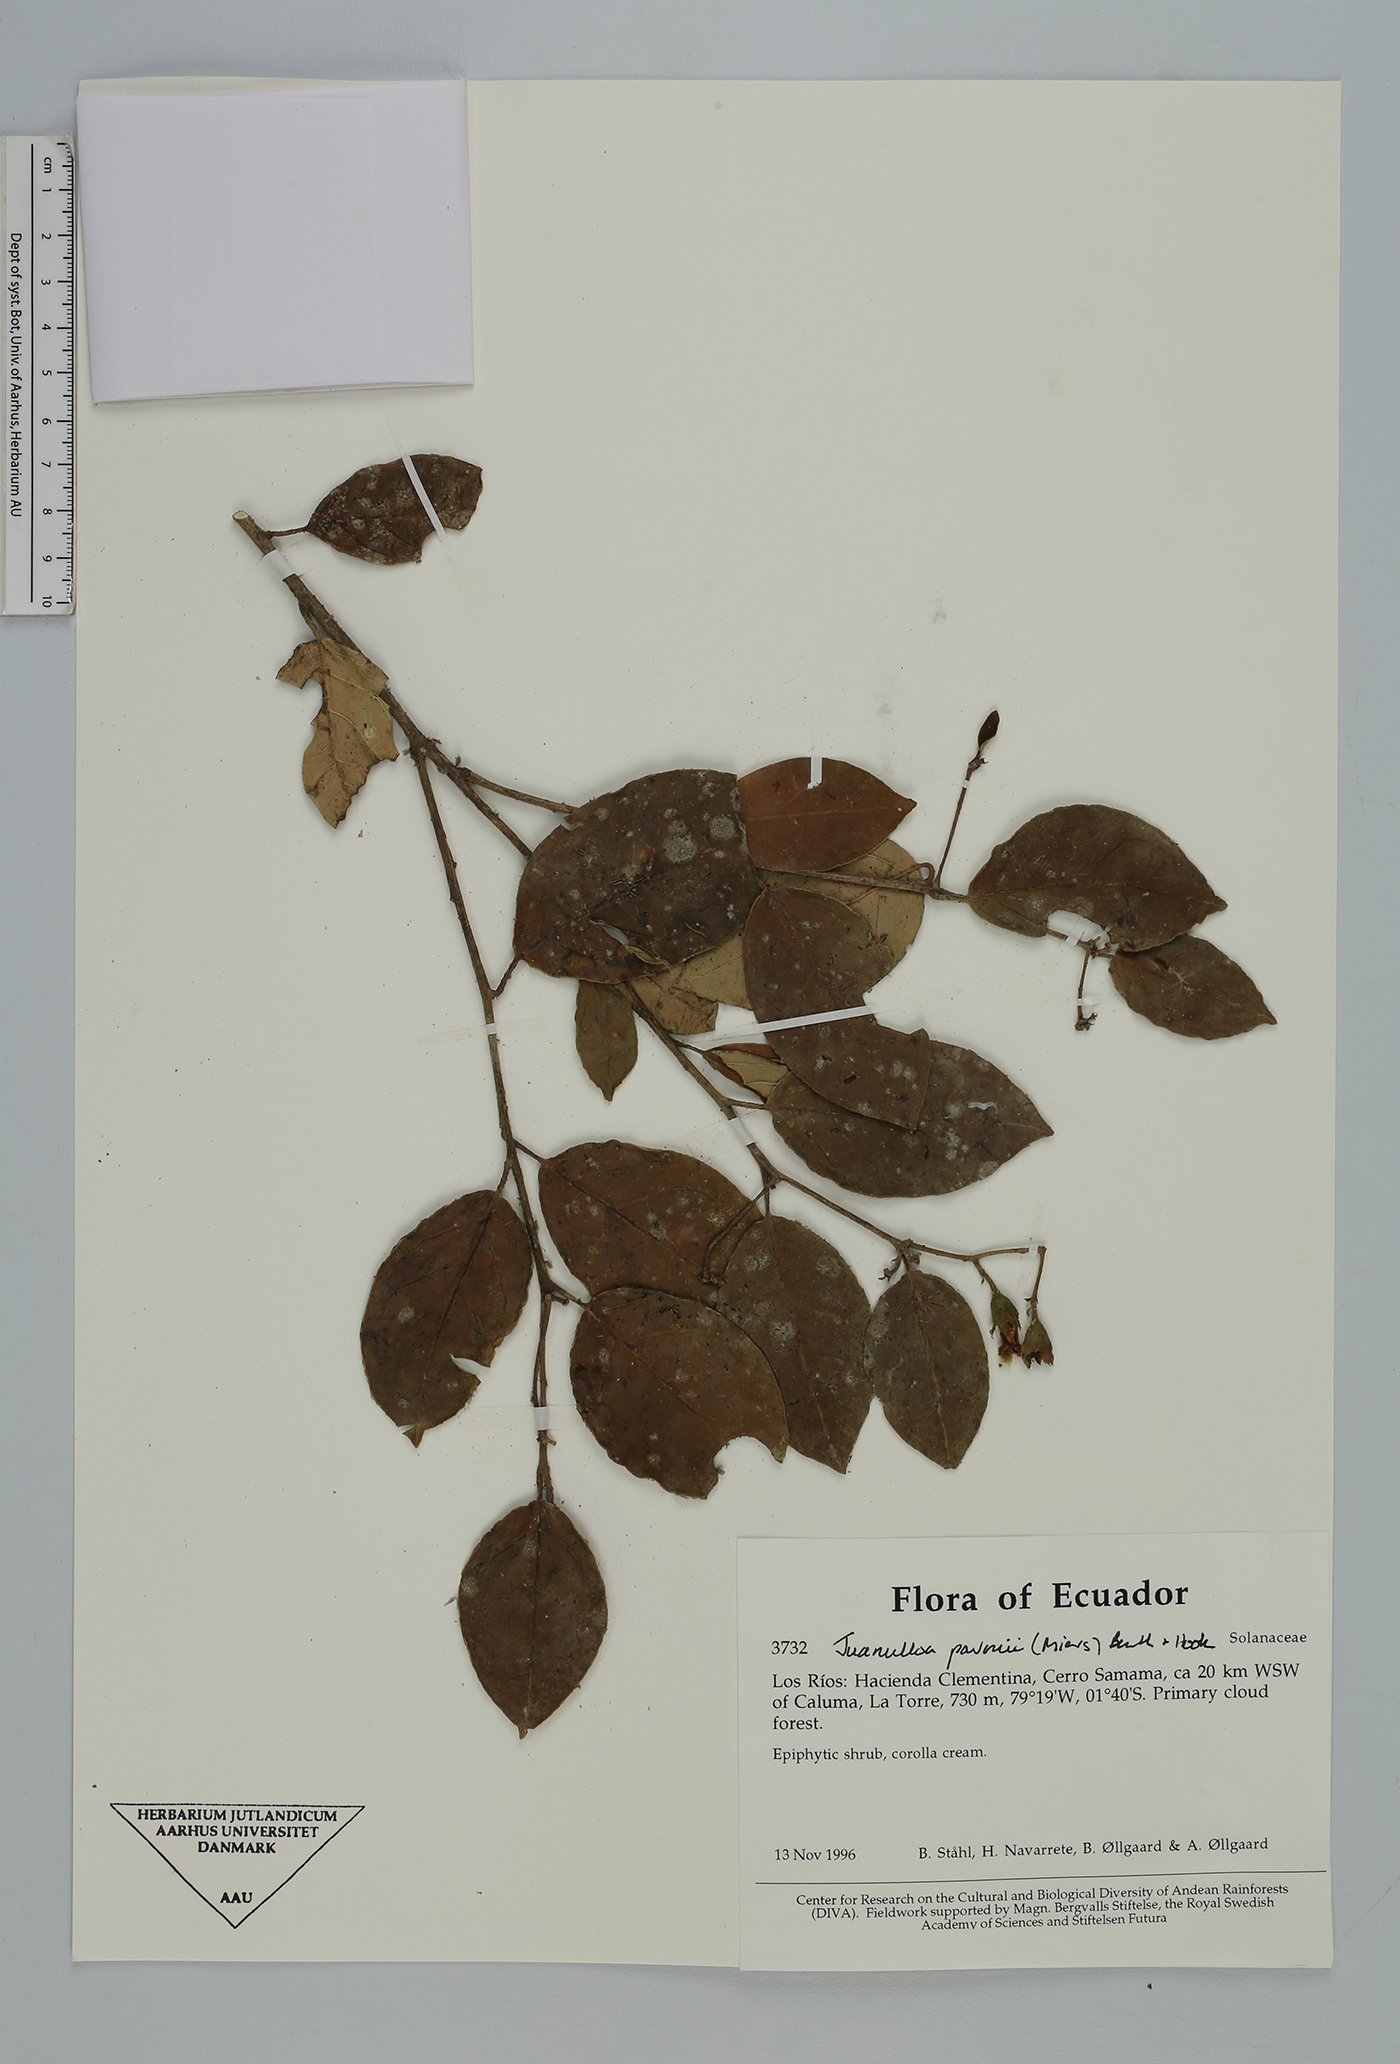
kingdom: Plantae
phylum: Tracheophyta
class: Magnoliopsida
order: Solanales
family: Solanaceae
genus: Markea
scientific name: Markea pavonii
